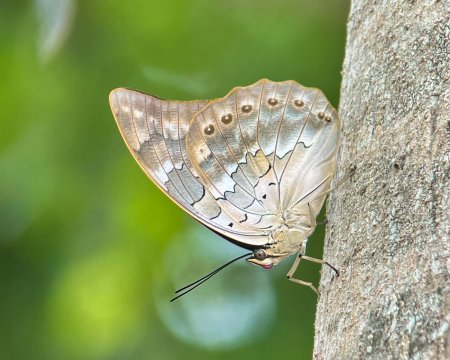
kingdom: Animalia
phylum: Arthropoda
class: Insecta
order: Lepidoptera
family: Nymphalidae
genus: Prepona
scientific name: Prepona demophoon
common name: Two-spotted Prepona
